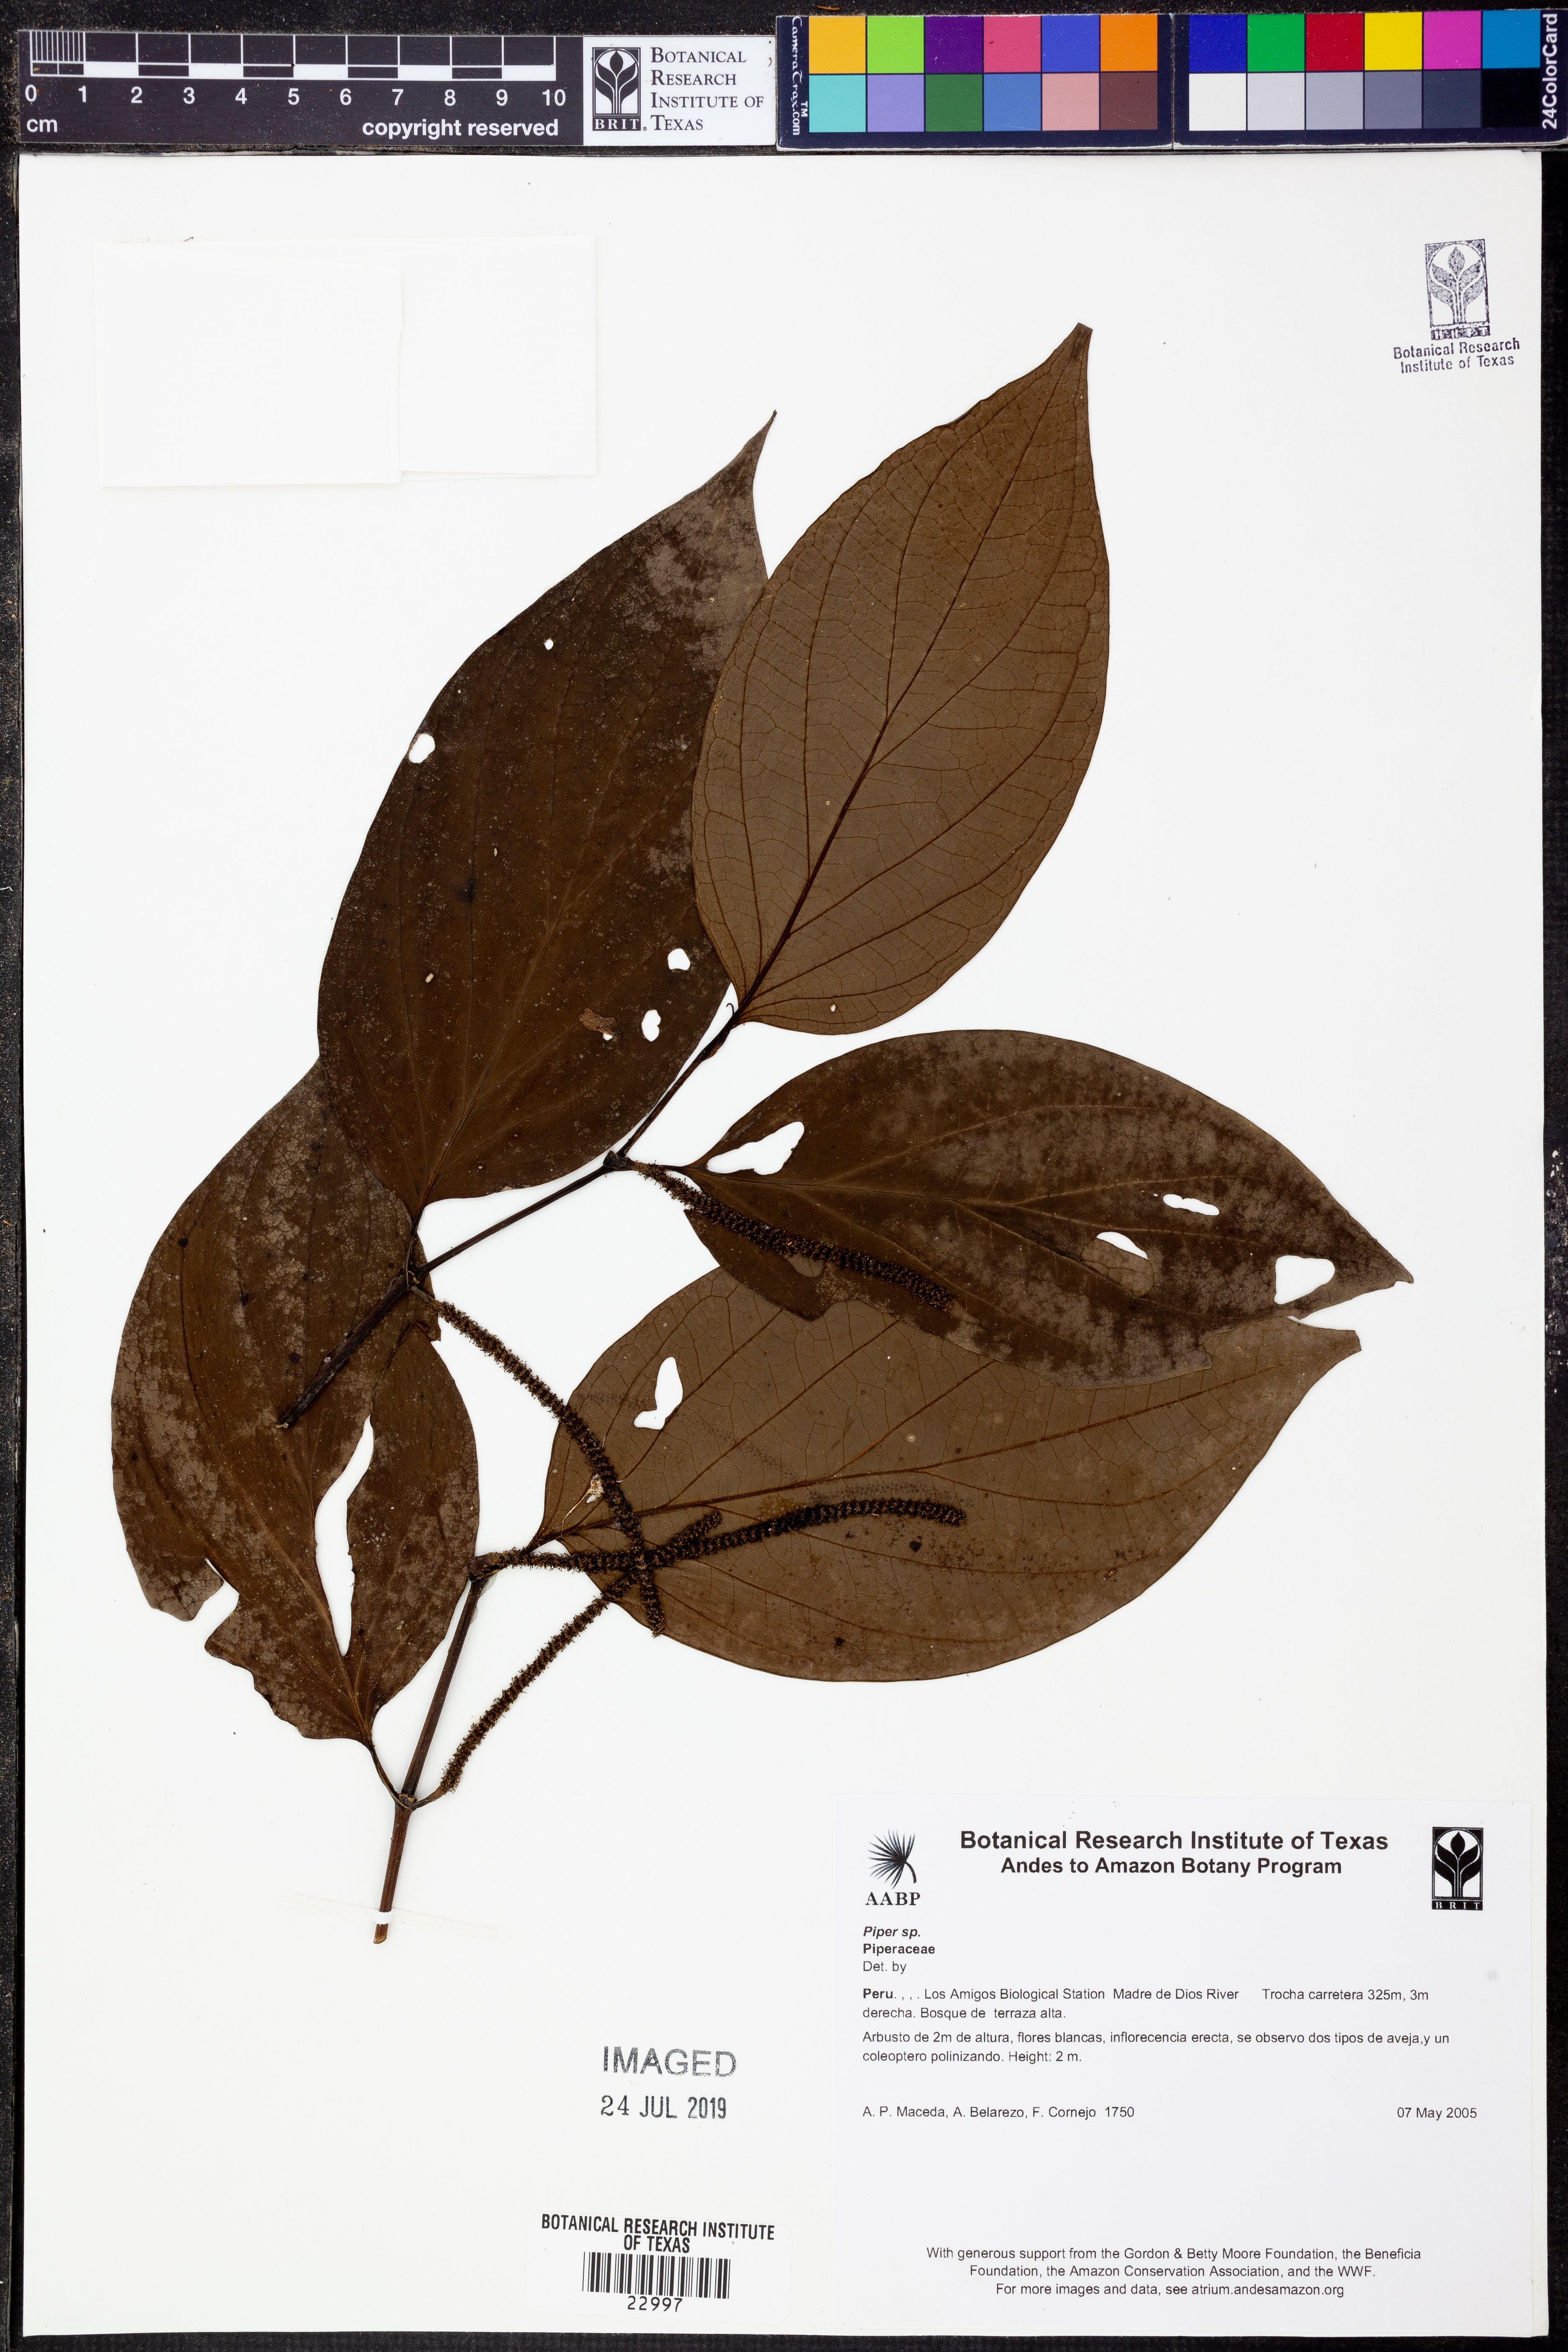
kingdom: Plantae
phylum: Tracheophyta
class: Magnoliopsida
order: Piperales
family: Piperaceae
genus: Piper
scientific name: Piper
